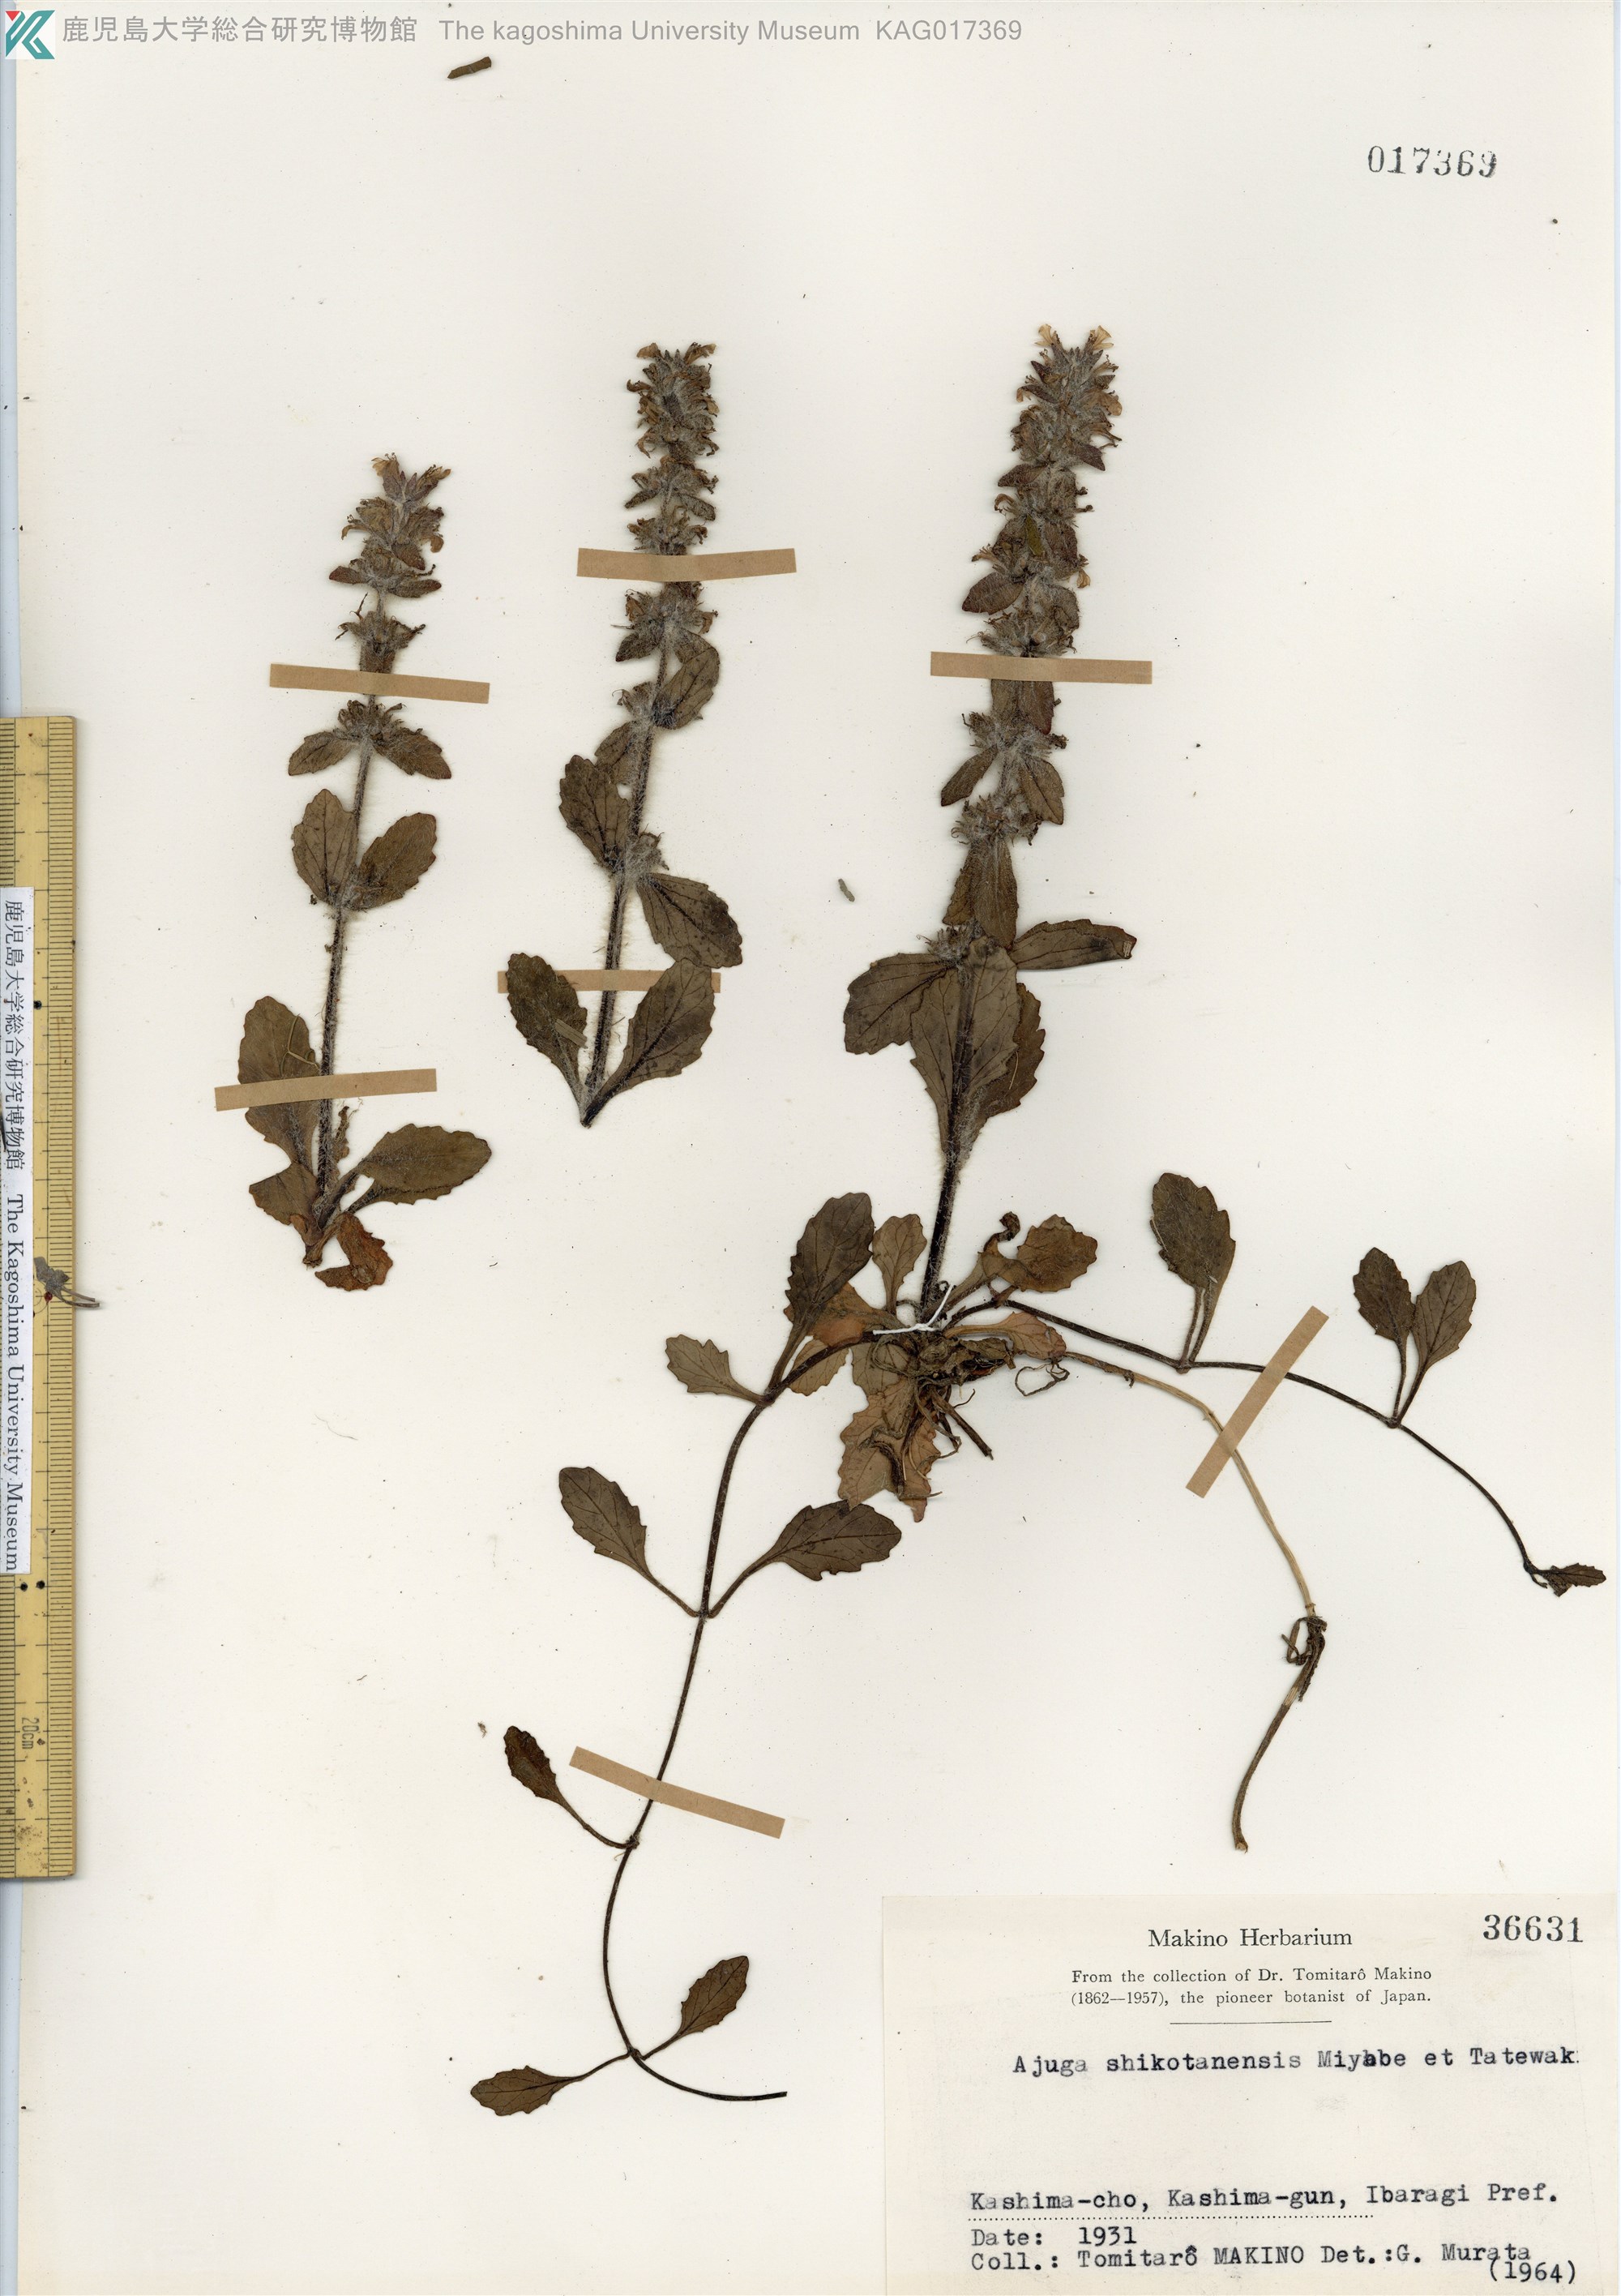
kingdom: Plantae
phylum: Tracheophyta
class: Magnoliopsida
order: Lamiales
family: Lamiaceae
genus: Ajuga
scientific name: Ajuga shikotanensis
